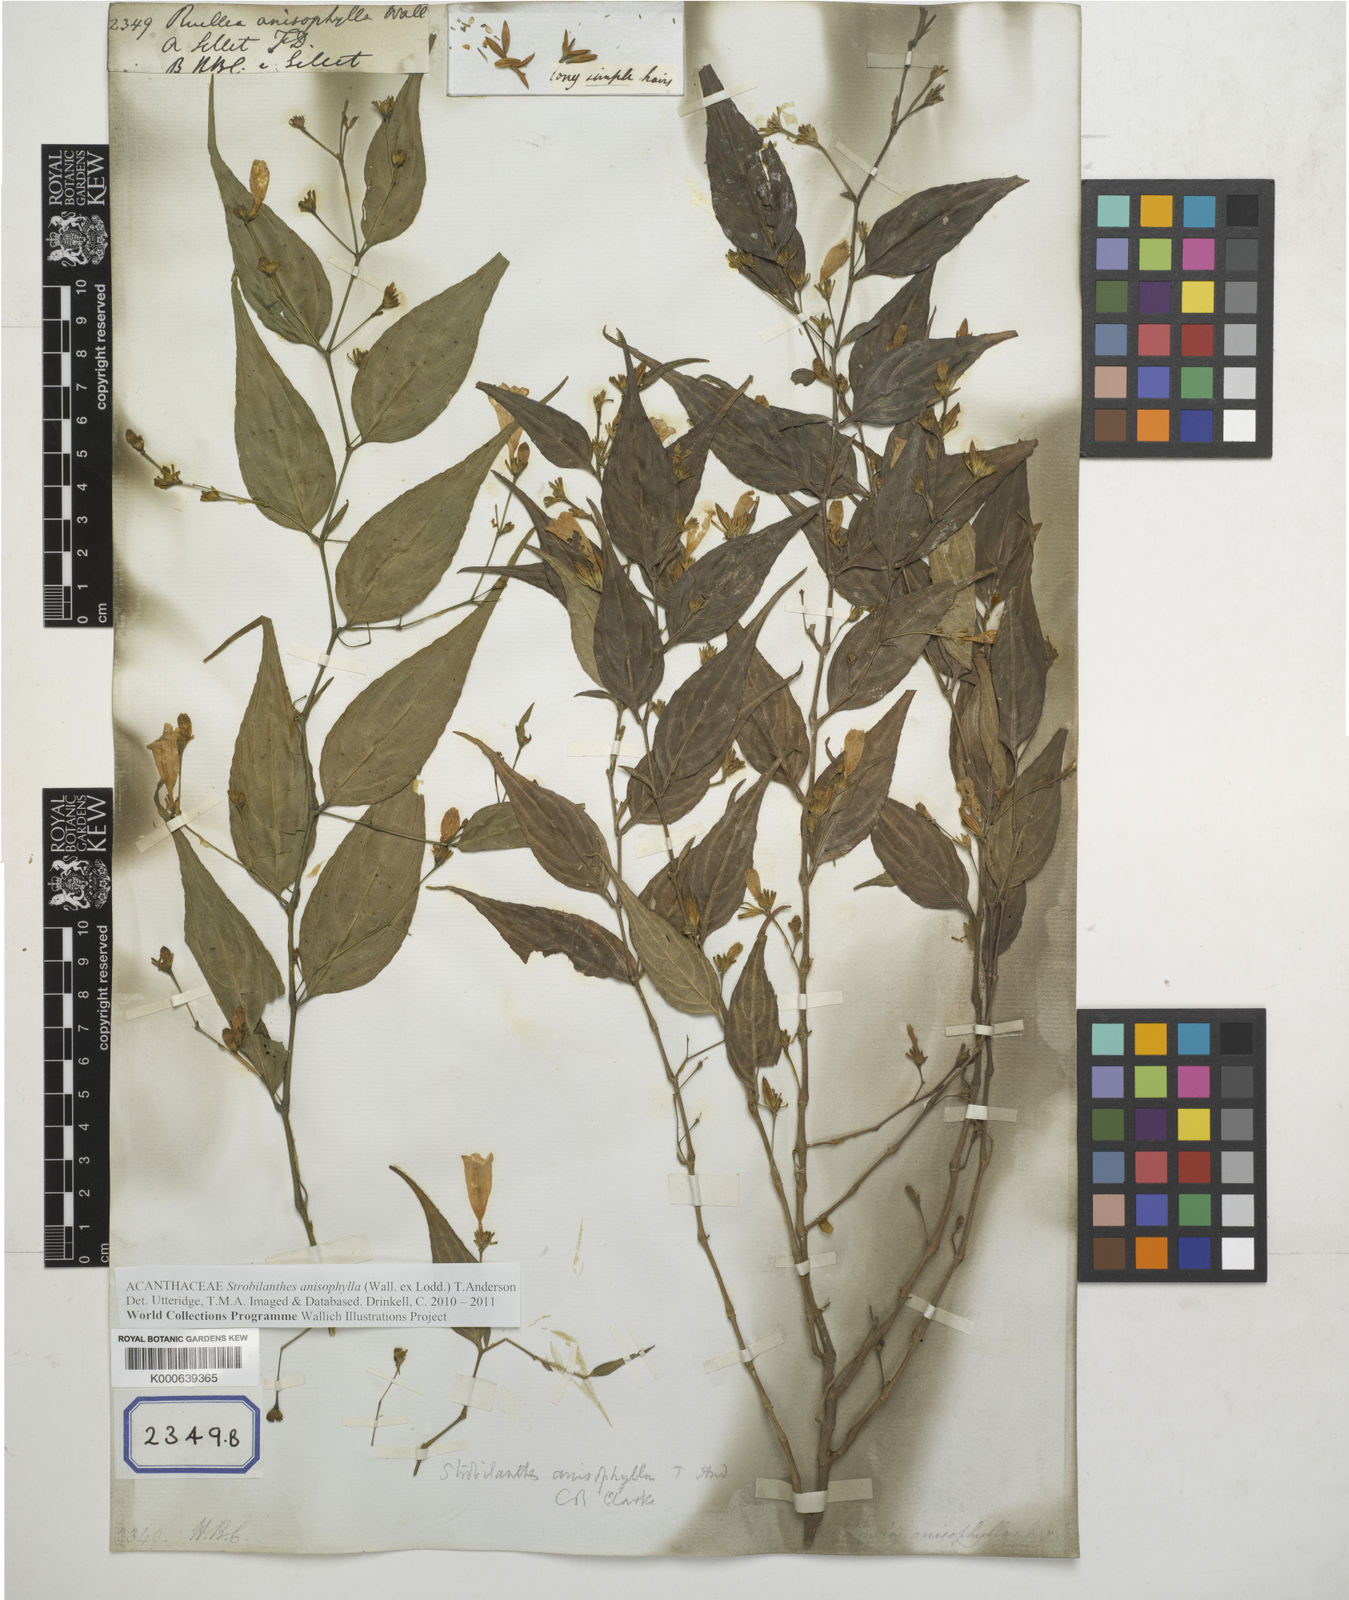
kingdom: Plantae
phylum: Tracheophyta
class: Magnoliopsida
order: Lamiales
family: Acanthaceae
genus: Strobilanthes
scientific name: Strobilanthes anisophylla
